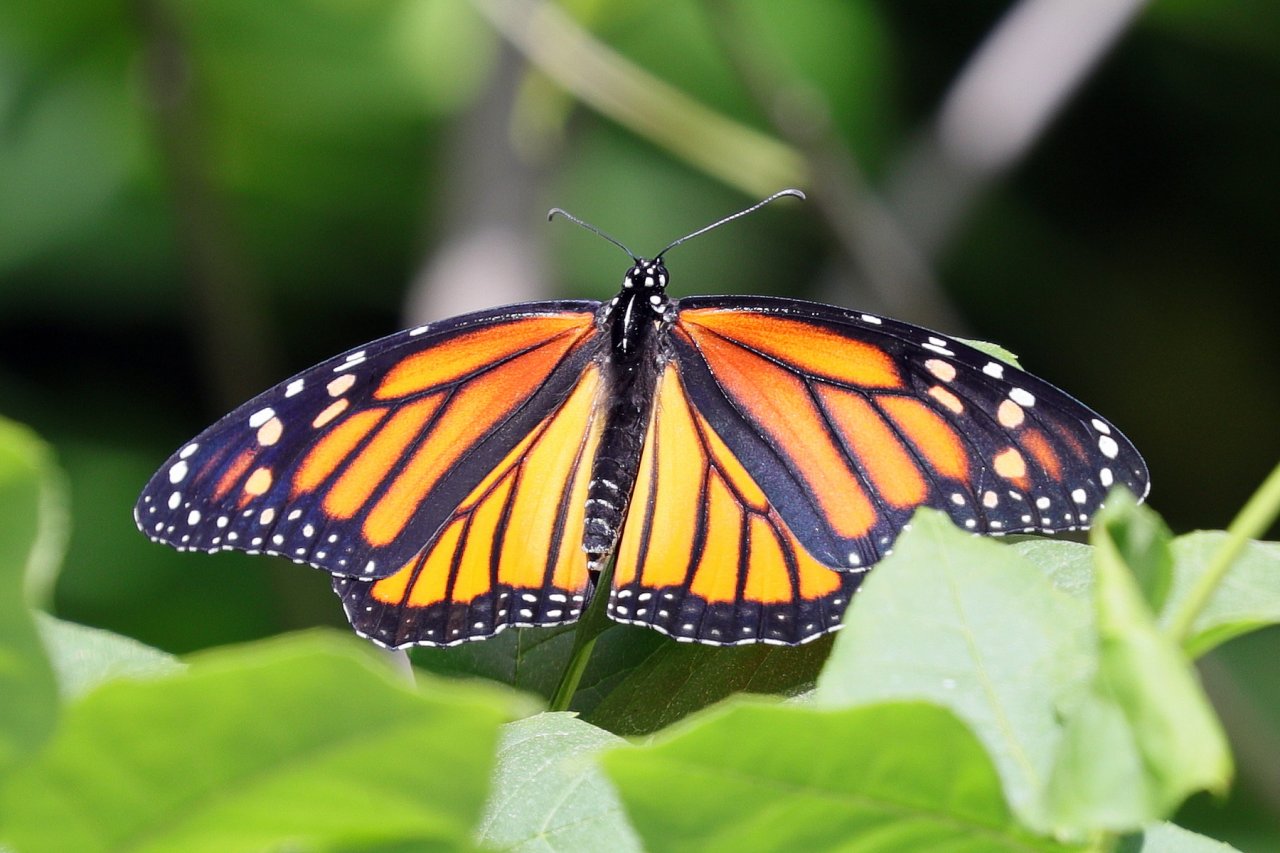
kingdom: Animalia
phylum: Arthropoda
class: Insecta
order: Lepidoptera
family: Nymphalidae
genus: Danaus
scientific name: Danaus plexippus
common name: Monarch
